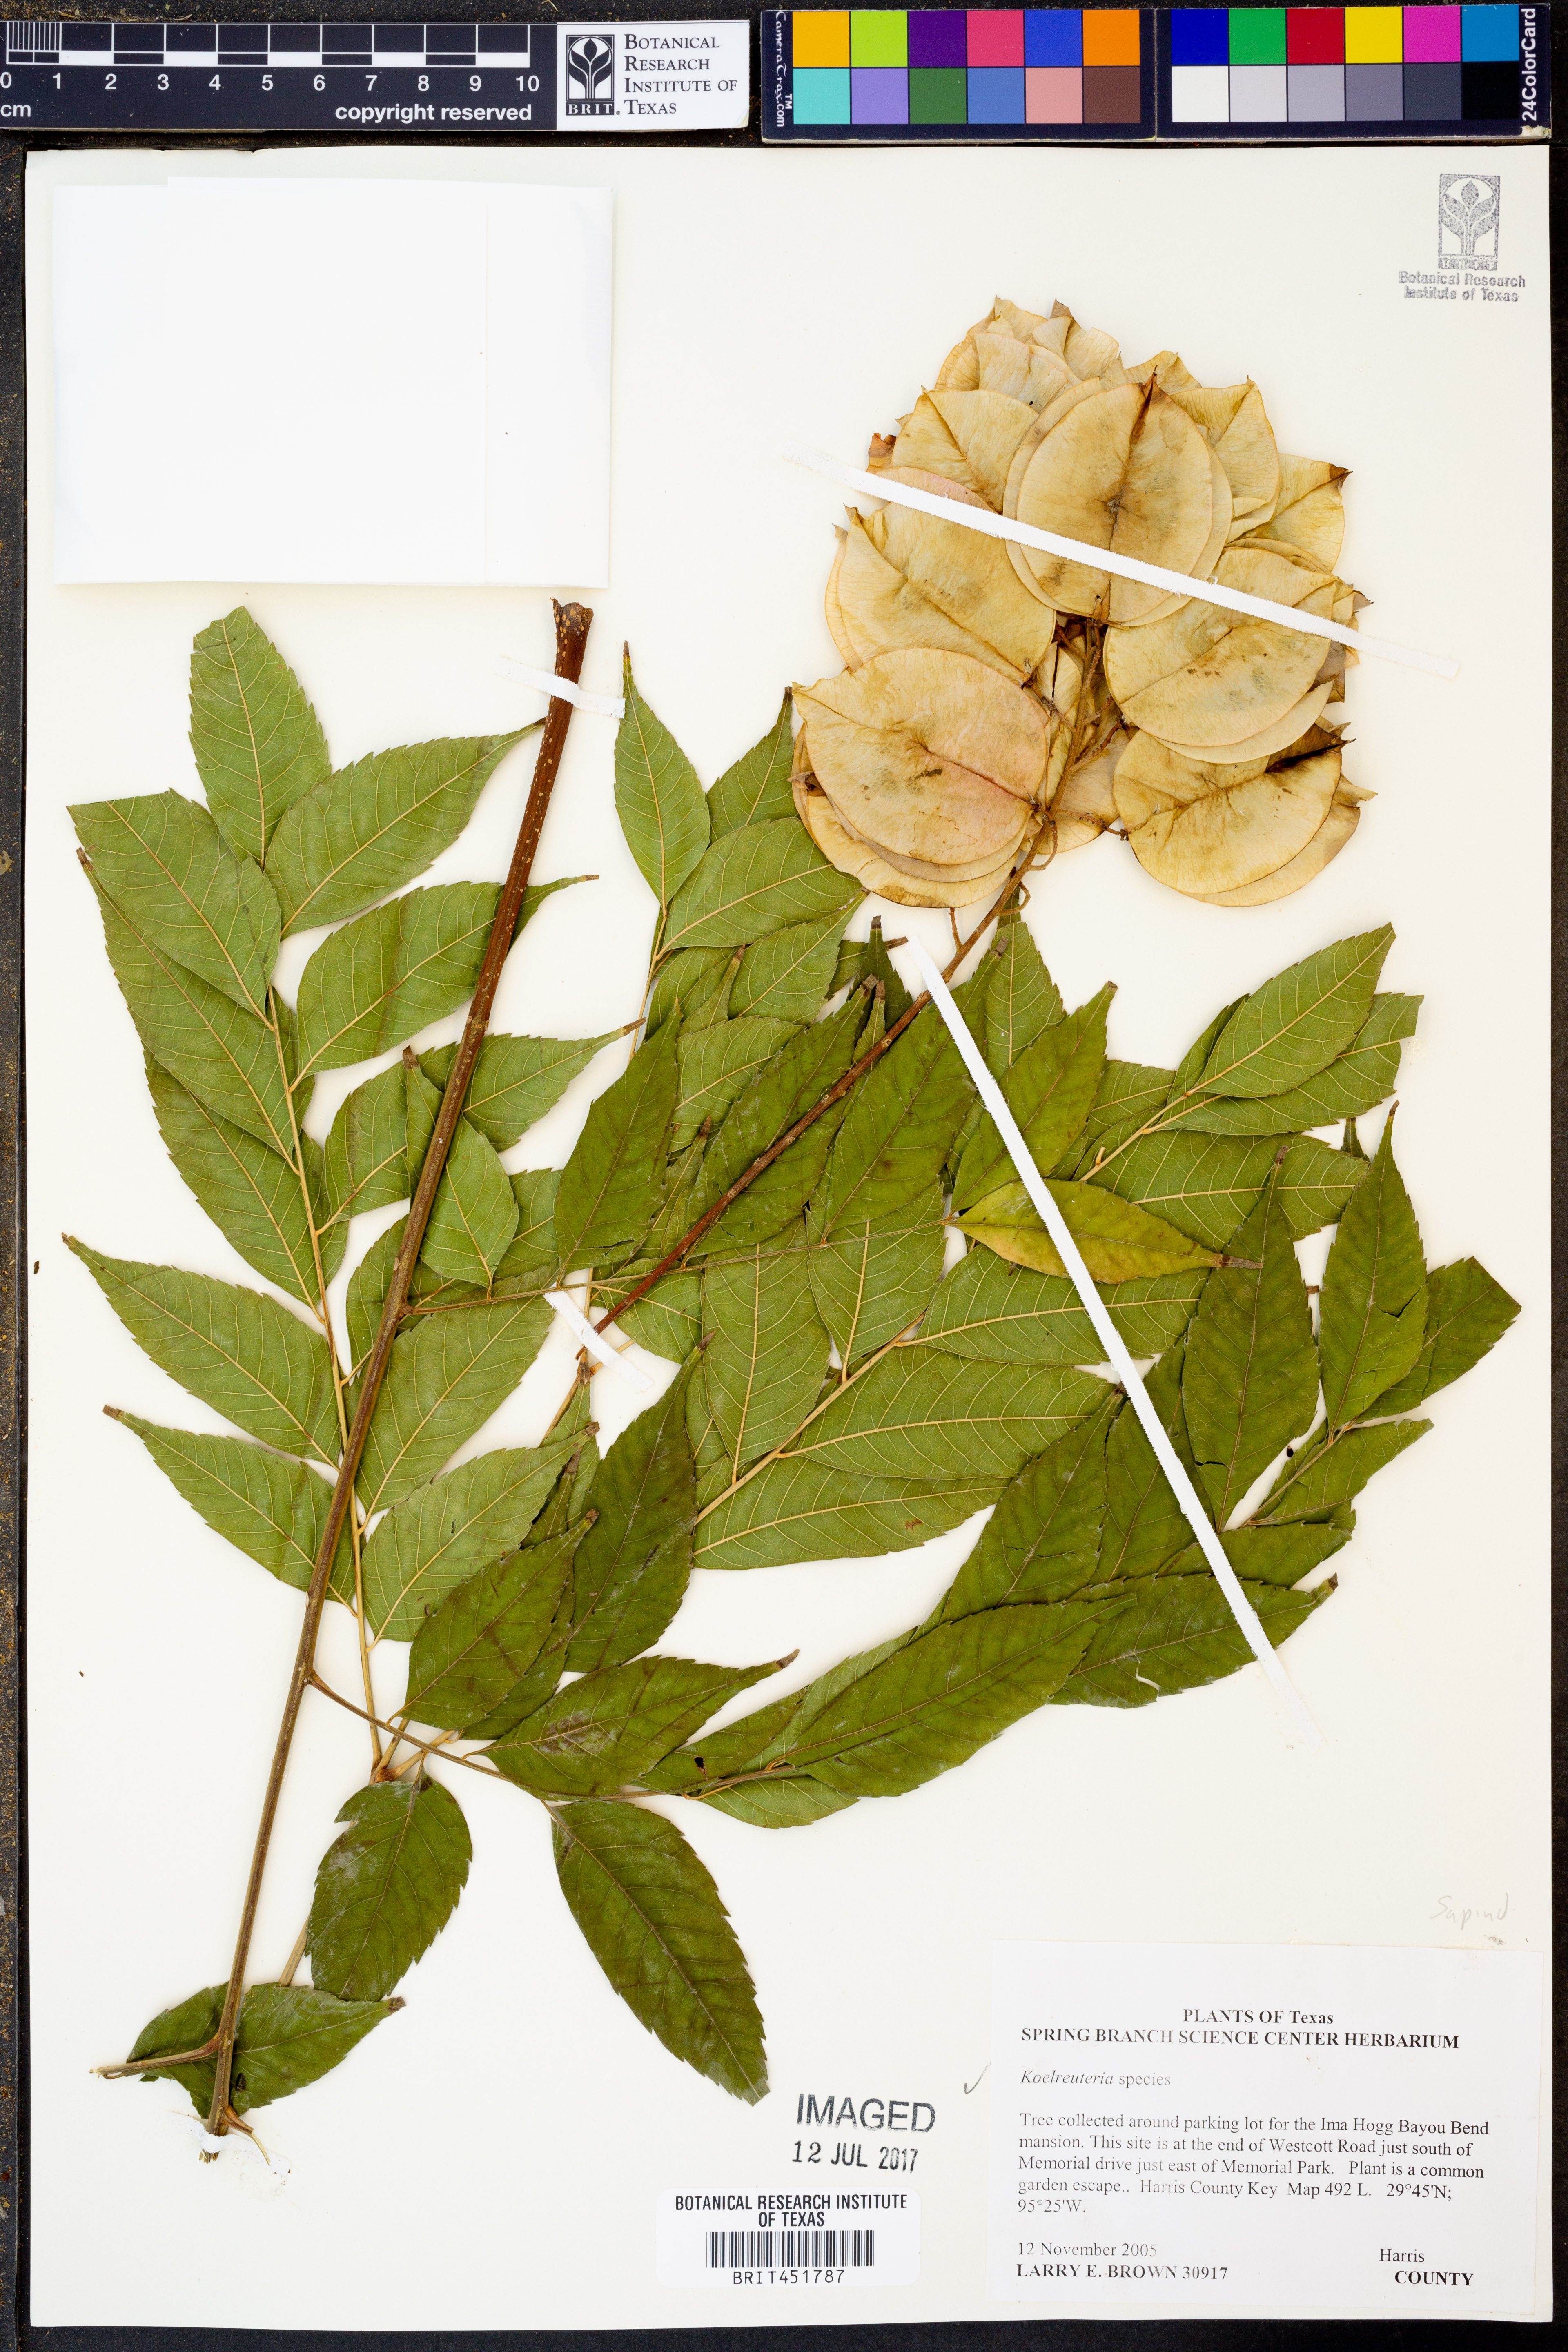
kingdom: Plantae
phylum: Tracheophyta
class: Magnoliopsida
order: Sapindales
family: Sapindaceae
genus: Koelreuteria
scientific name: Koelreuteria
